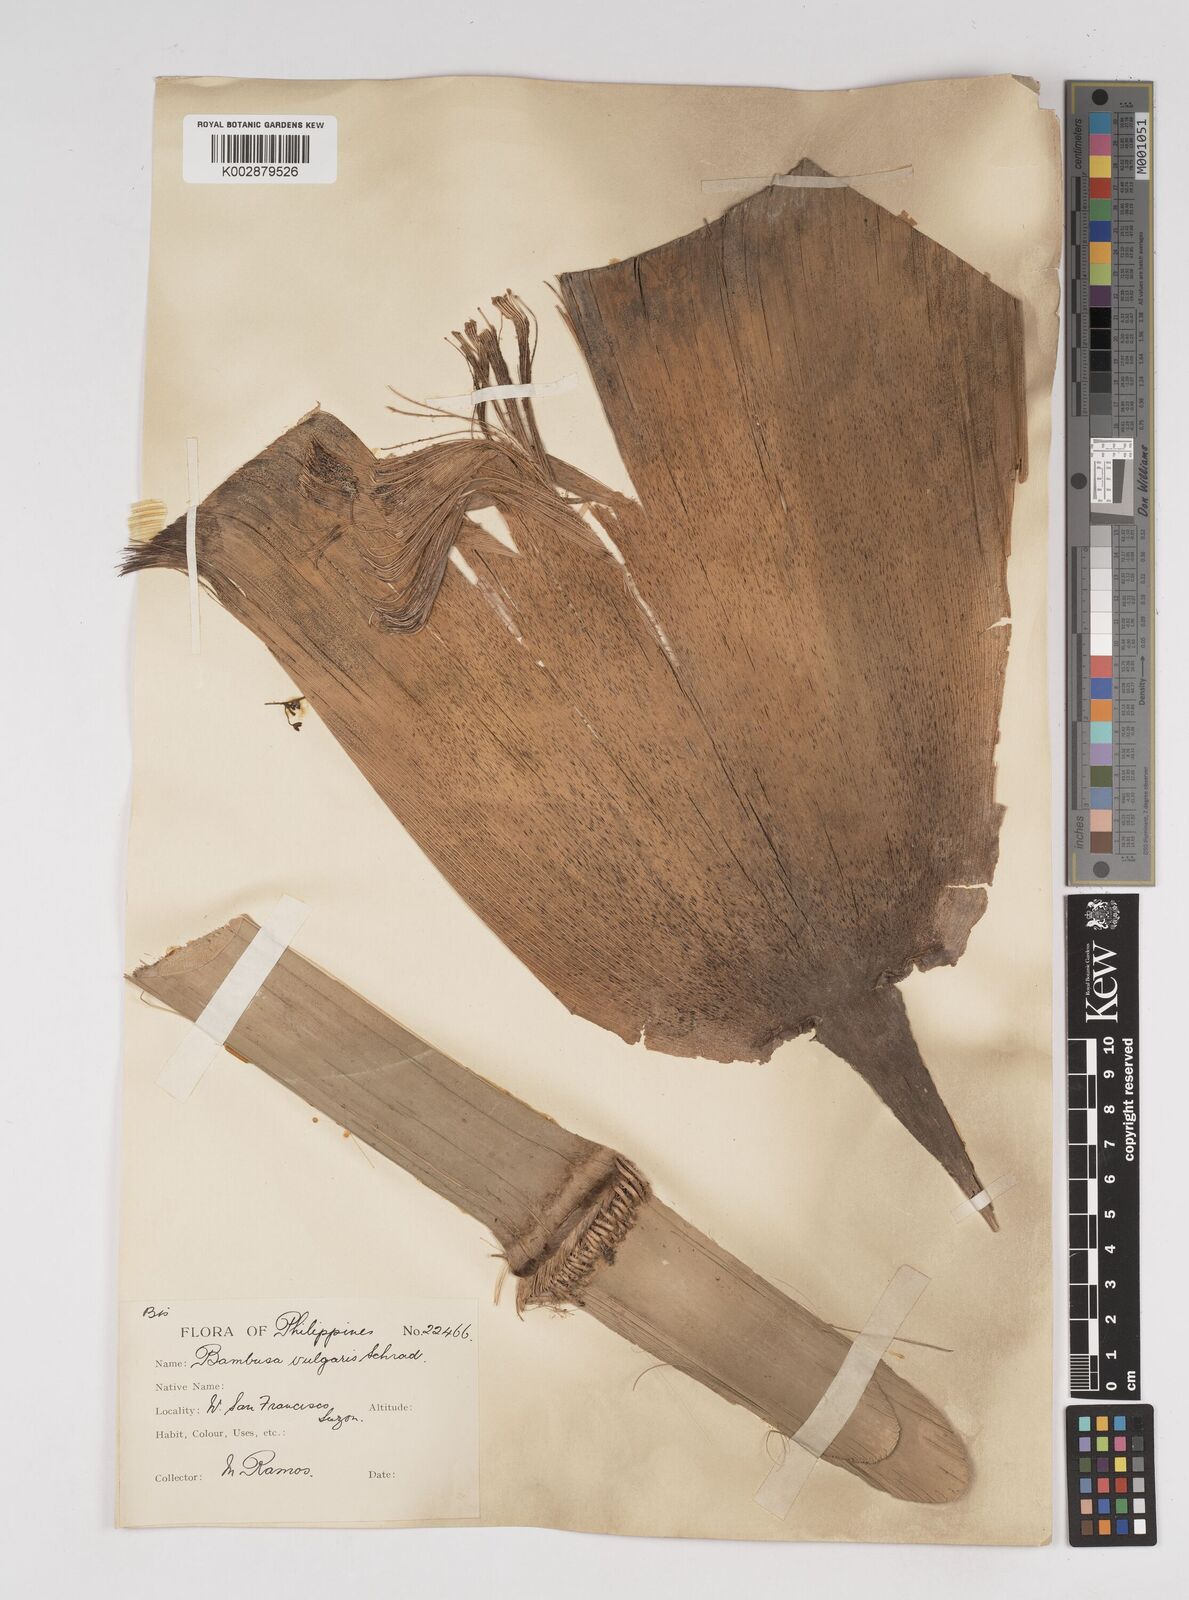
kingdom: Plantae
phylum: Tracheophyta
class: Liliopsida
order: Poales
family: Poaceae
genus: Dendrocalamus
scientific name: Dendrocalamus merrillianus
